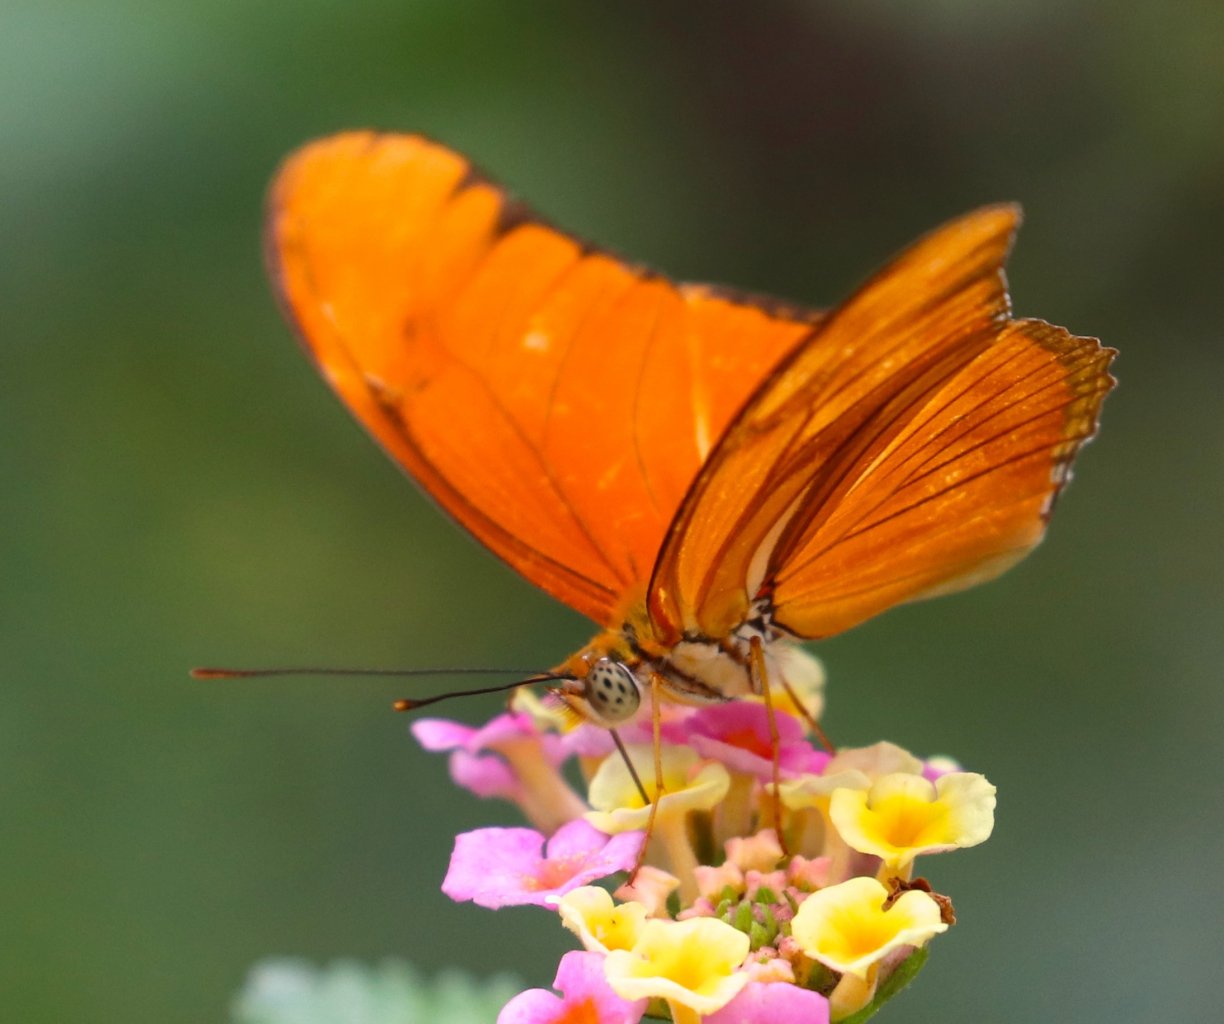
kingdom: Animalia
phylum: Arthropoda
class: Insecta
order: Lepidoptera
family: Nymphalidae
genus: Dryas
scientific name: Dryas iulia
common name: Julia
